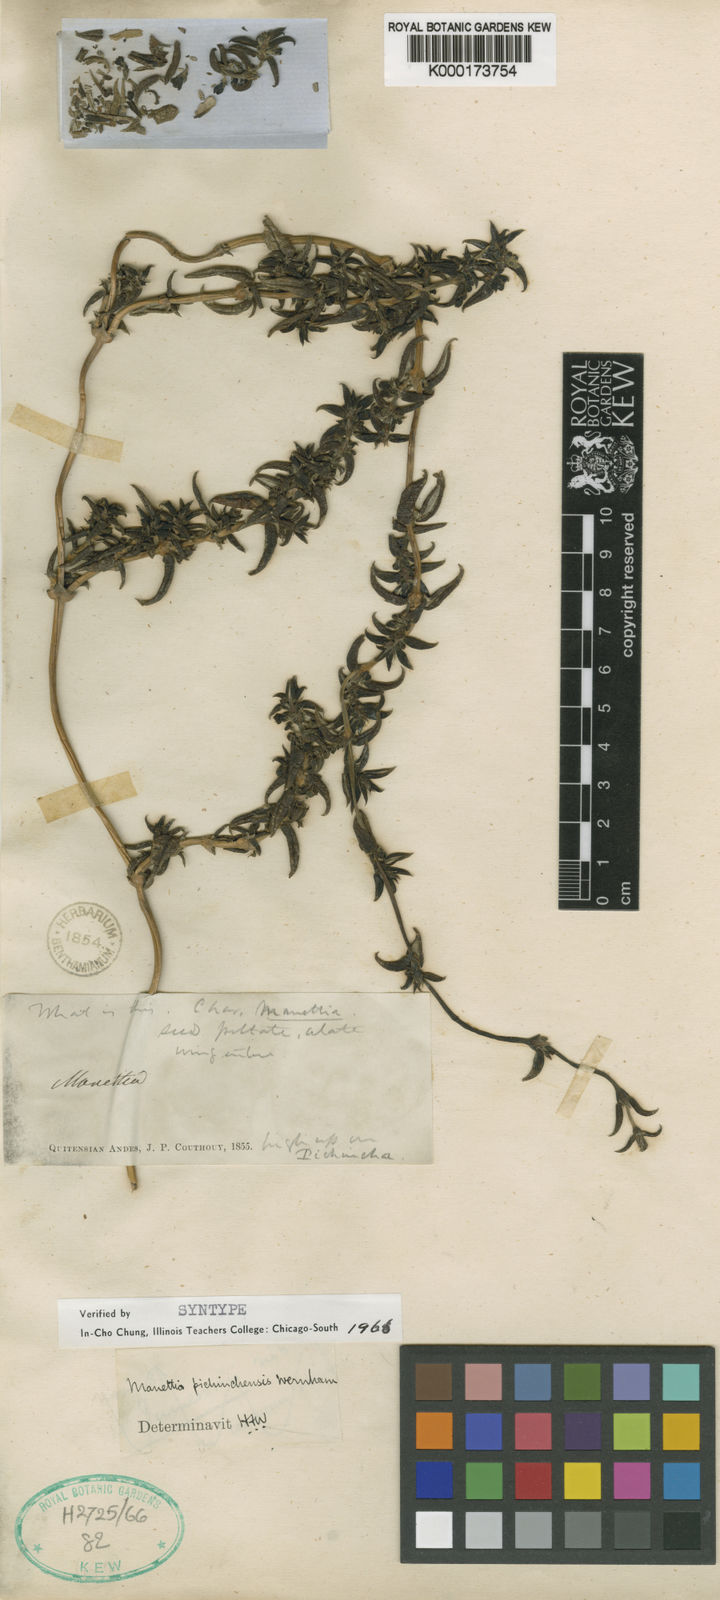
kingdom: Plantae
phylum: Tracheophyta
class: Magnoliopsida
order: Gentianales
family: Rubiaceae
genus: Manettia
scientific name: Manettia pichinchensis
